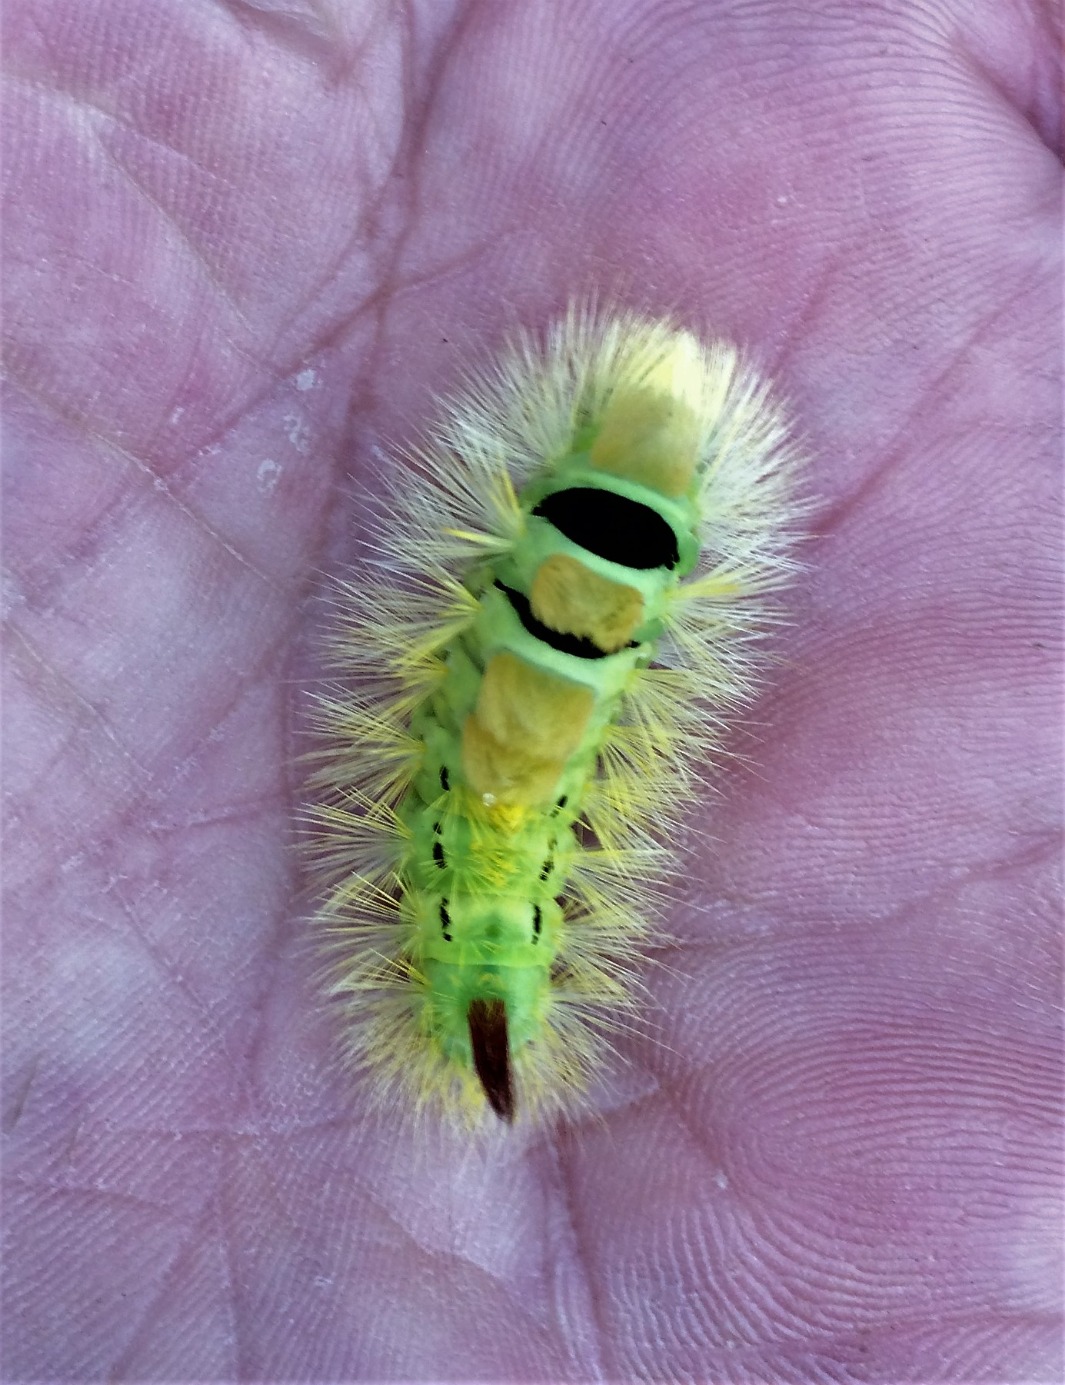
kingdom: Animalia
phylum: Arthropoda
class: Insecta
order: Lepidoptera
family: Erebidae
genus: Calliteara
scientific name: Calliteara pudibunda
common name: Bøgenonne
